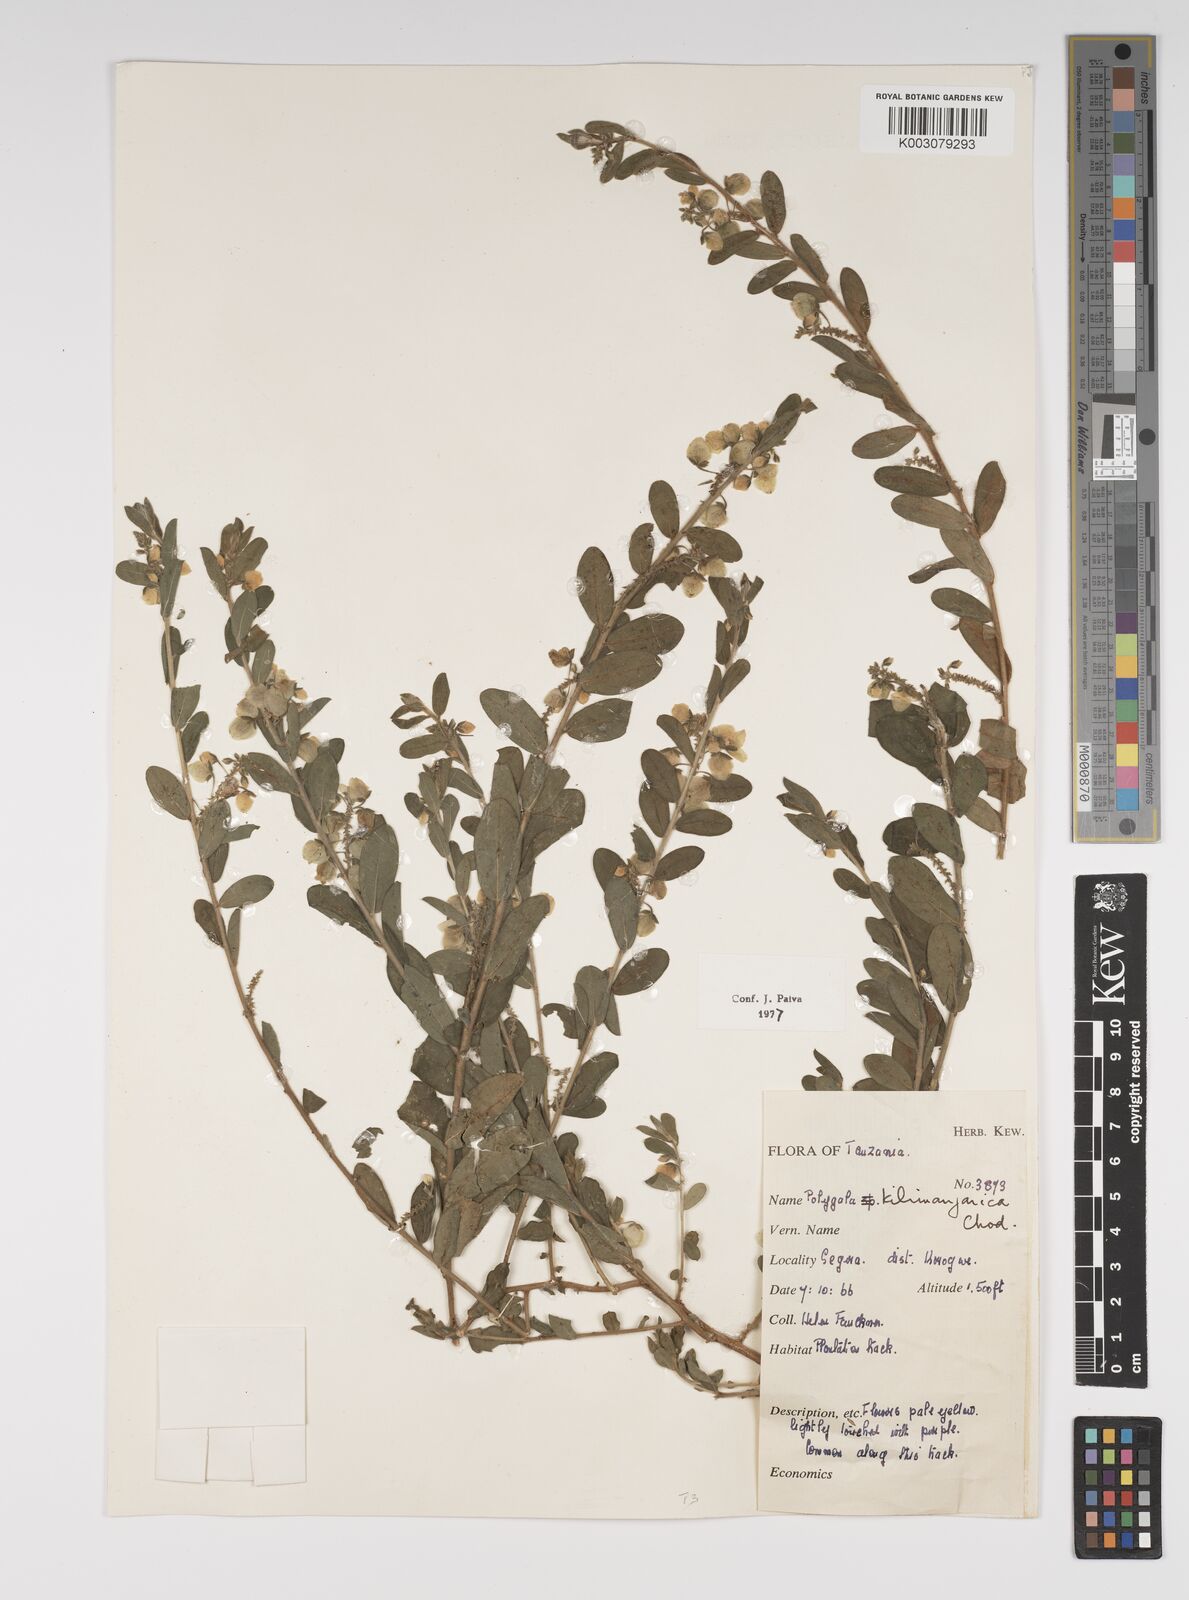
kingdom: Plantae
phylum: Tracheophyta
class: Magnoliopsida
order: Fabales
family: Polygalaceae
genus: Polygala
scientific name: Polygala kilimandjarica
